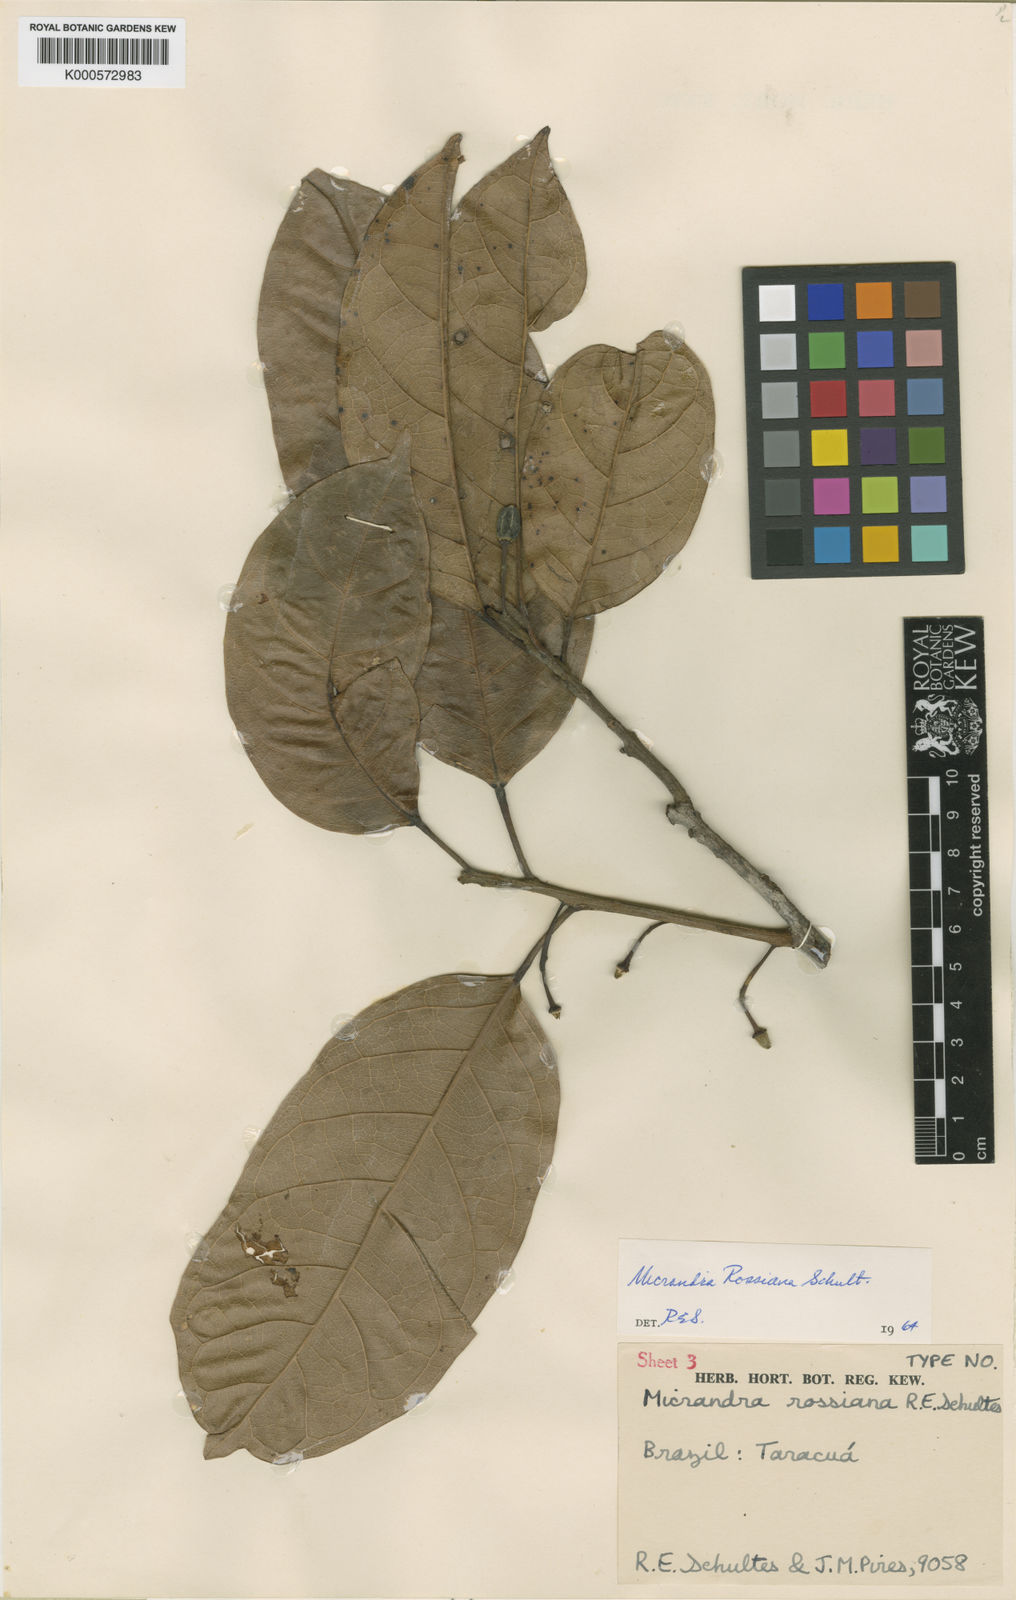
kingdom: Plantae
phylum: Tracheophyta
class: Magnoliopsida
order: Malpighiales
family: Euphorbiaceae
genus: Micrandra
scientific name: Micrandra rossiana
